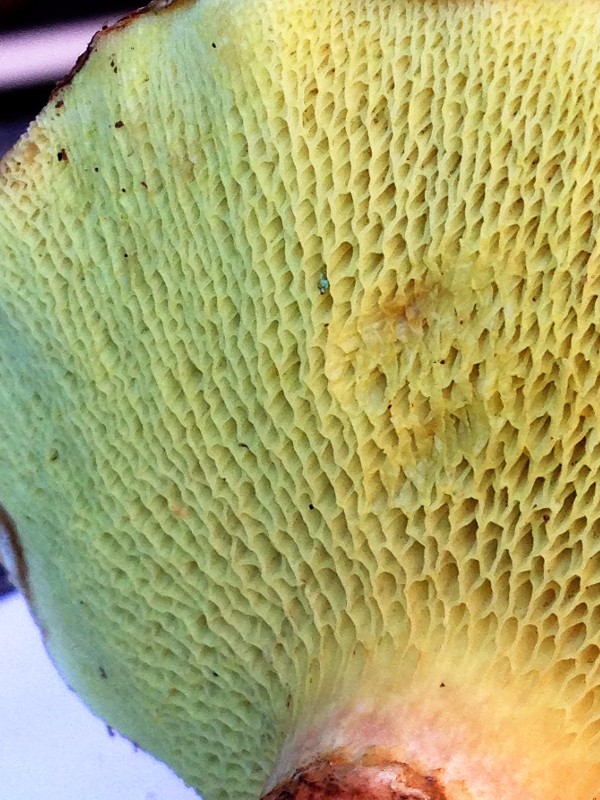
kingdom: Fungi
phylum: Basidiomycota
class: Agaricomycetes
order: Boletales
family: Suillaceae
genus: Suillus
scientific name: Suillus cavipes
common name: hulstokket slimrørhat
